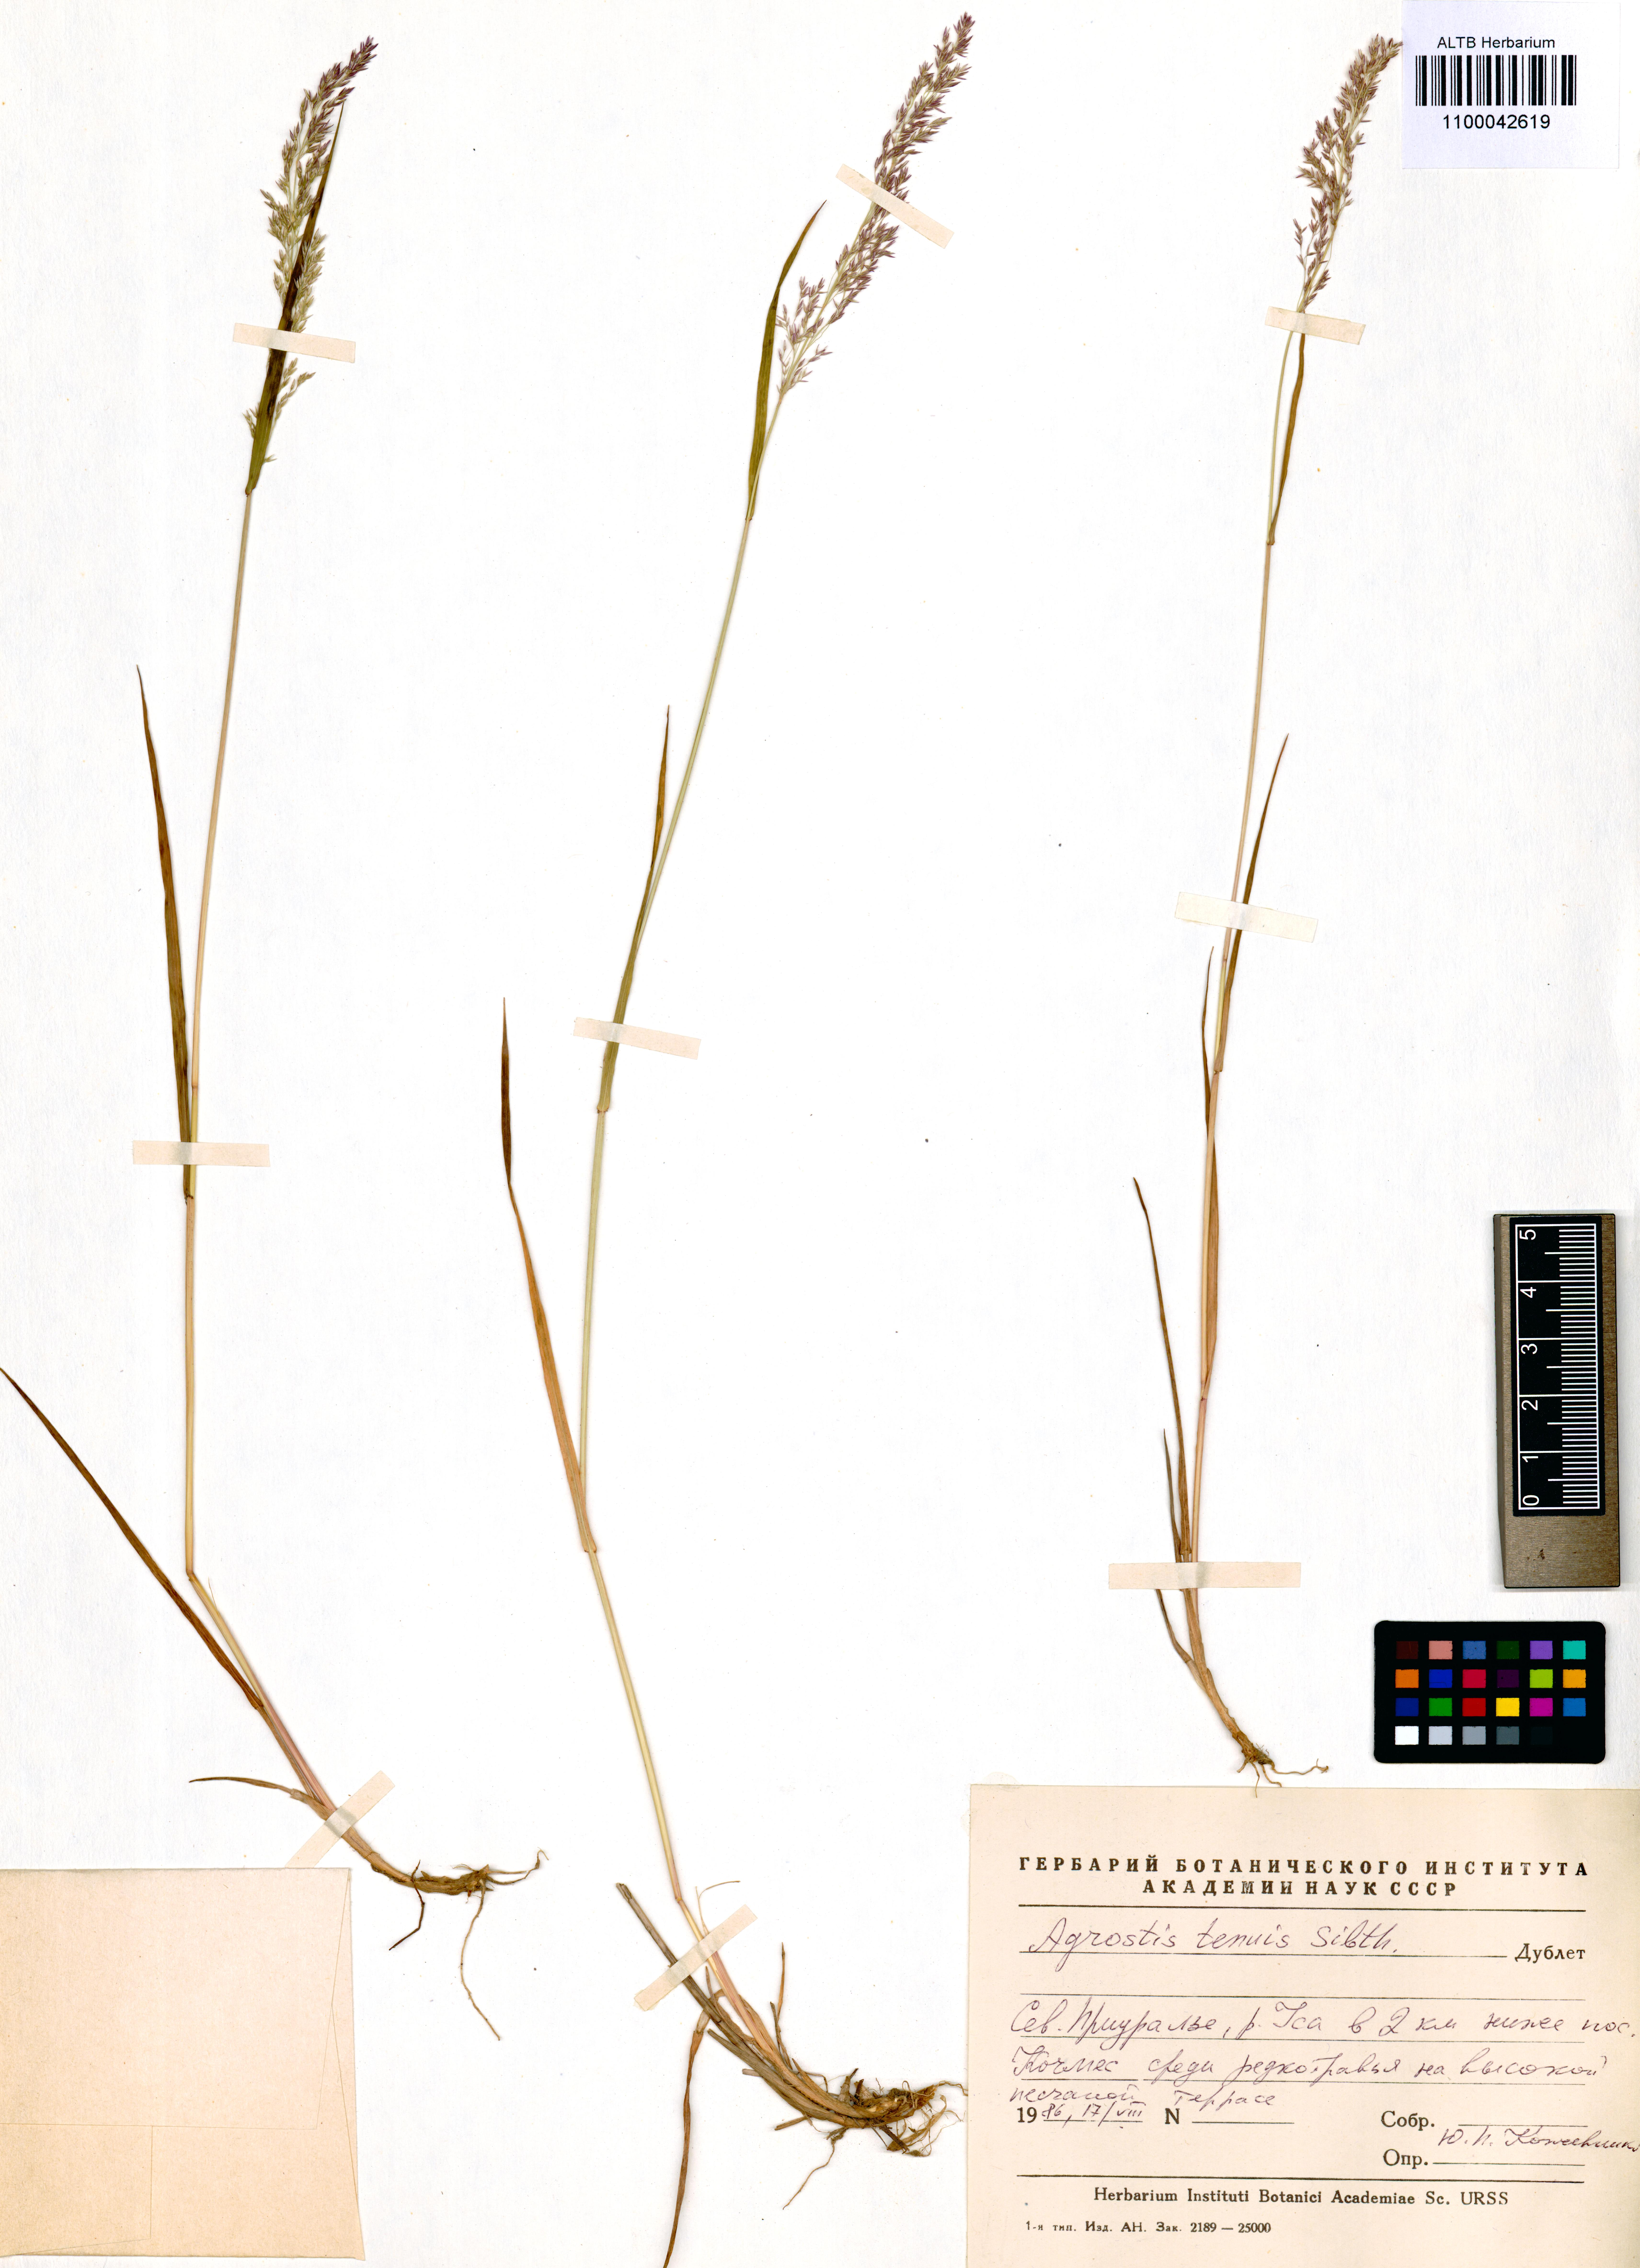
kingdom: Plantae
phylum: Tracheophyta
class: Liliopsida
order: Poales
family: Poaceae
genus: Agrostis
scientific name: Agrostis capillaris
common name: Colonial bentgrass
